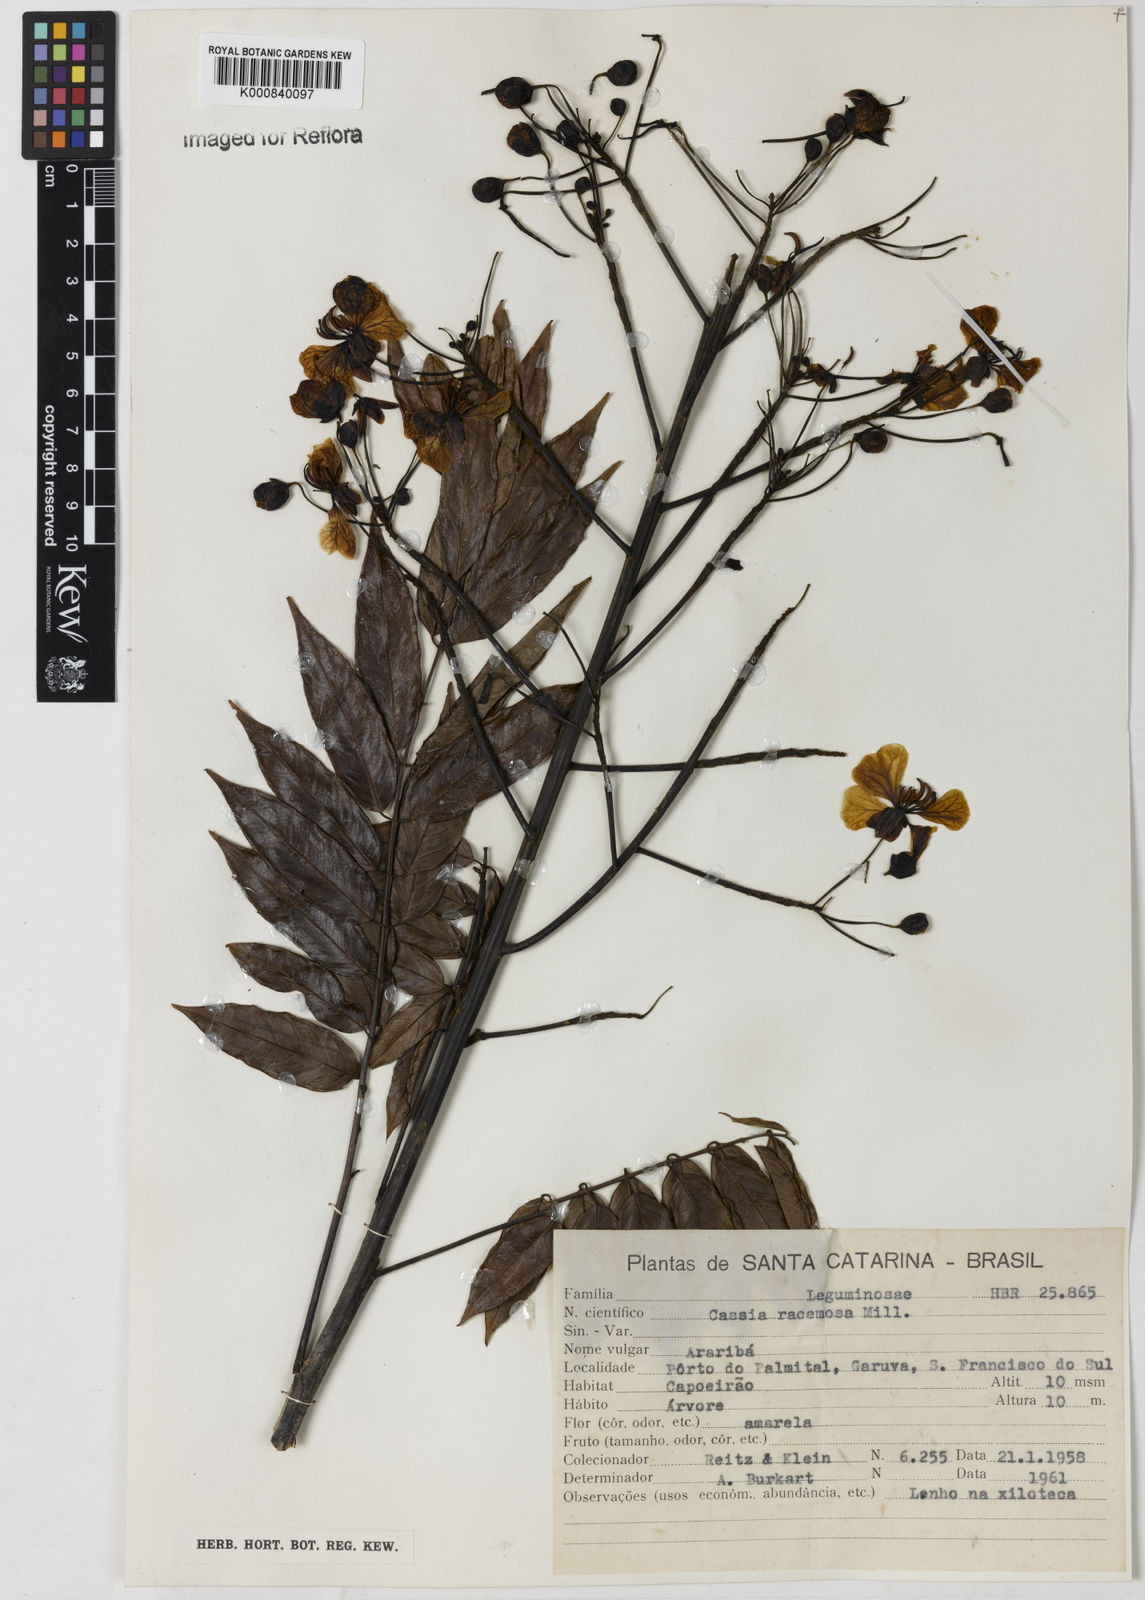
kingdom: Plantae
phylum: Tracheophyta
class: Magnoliopsida
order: Fabales
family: Fabaceae
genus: Senna
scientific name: Senna silvestris
